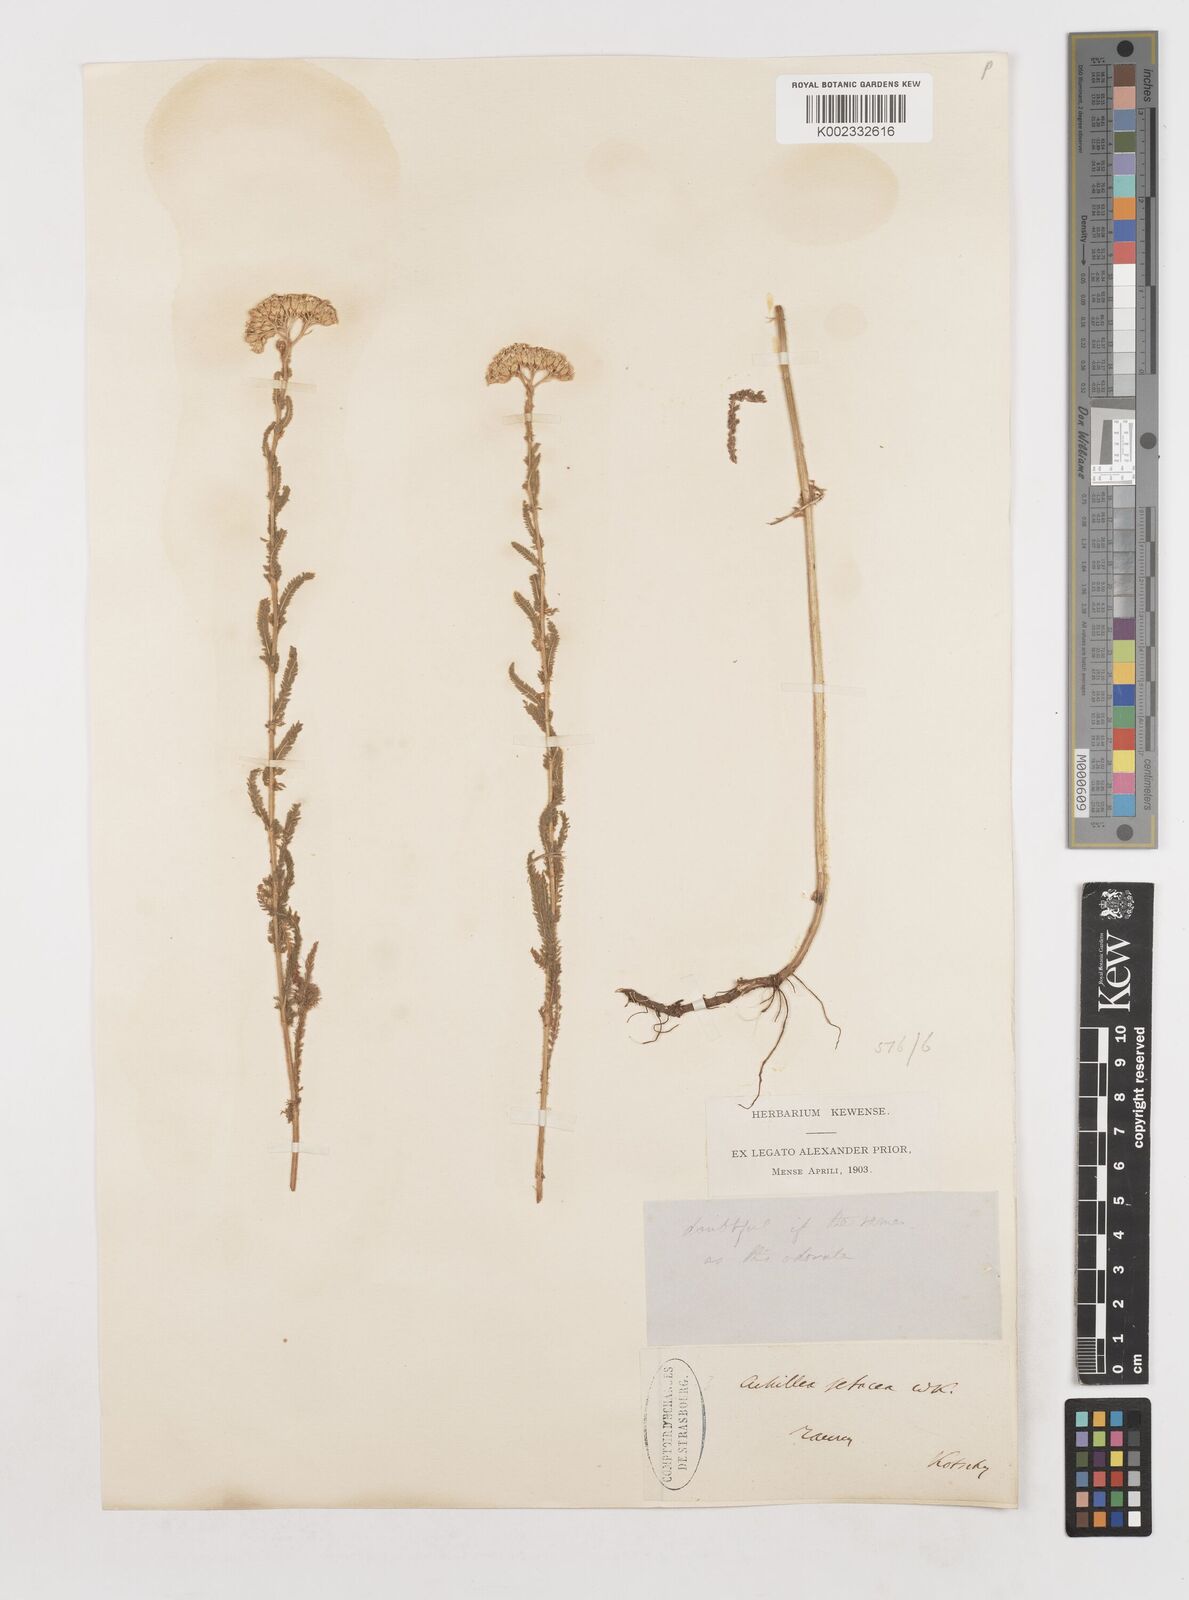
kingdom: Plantae
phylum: Tracheophyta
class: Magnoliopsida
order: Asterales
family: Asteraceae
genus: Achillea
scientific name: Achillea setacea
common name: Bristly yarrow
